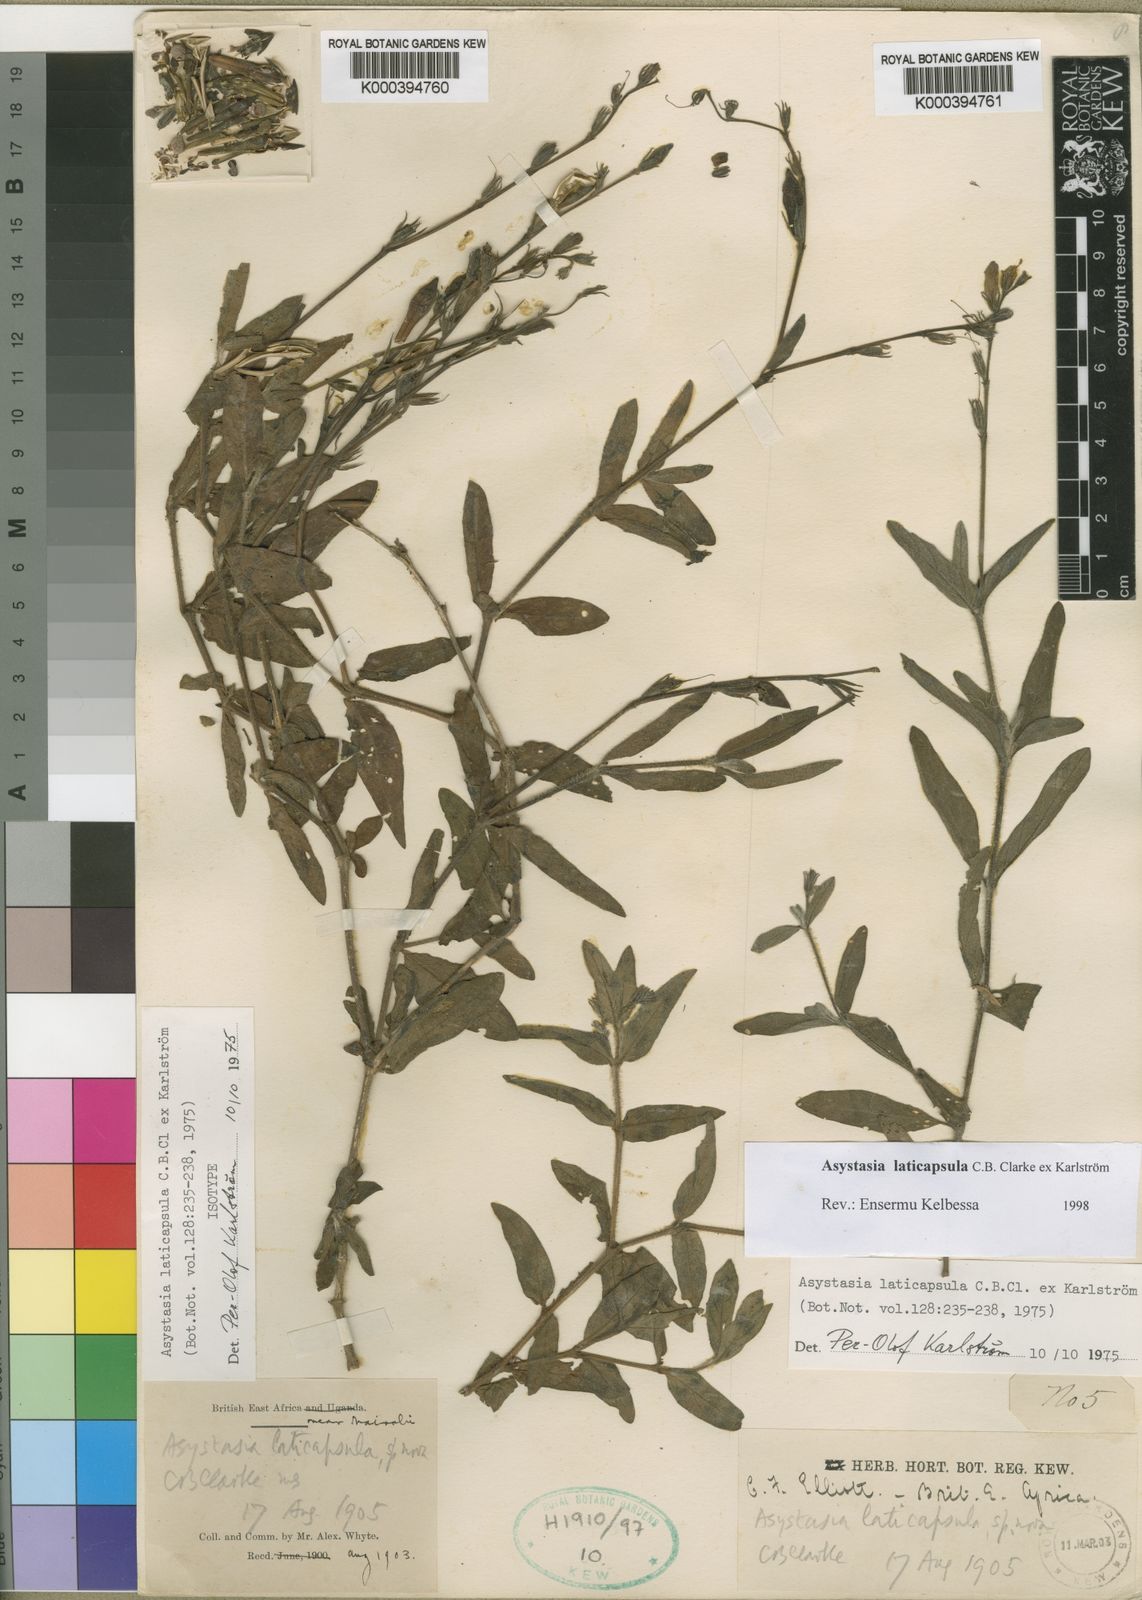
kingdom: Plantae
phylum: Tracheophyta
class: Magnoliopsida
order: Lamiales
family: Acanthaceae
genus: Asystasia
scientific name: Asystasia
